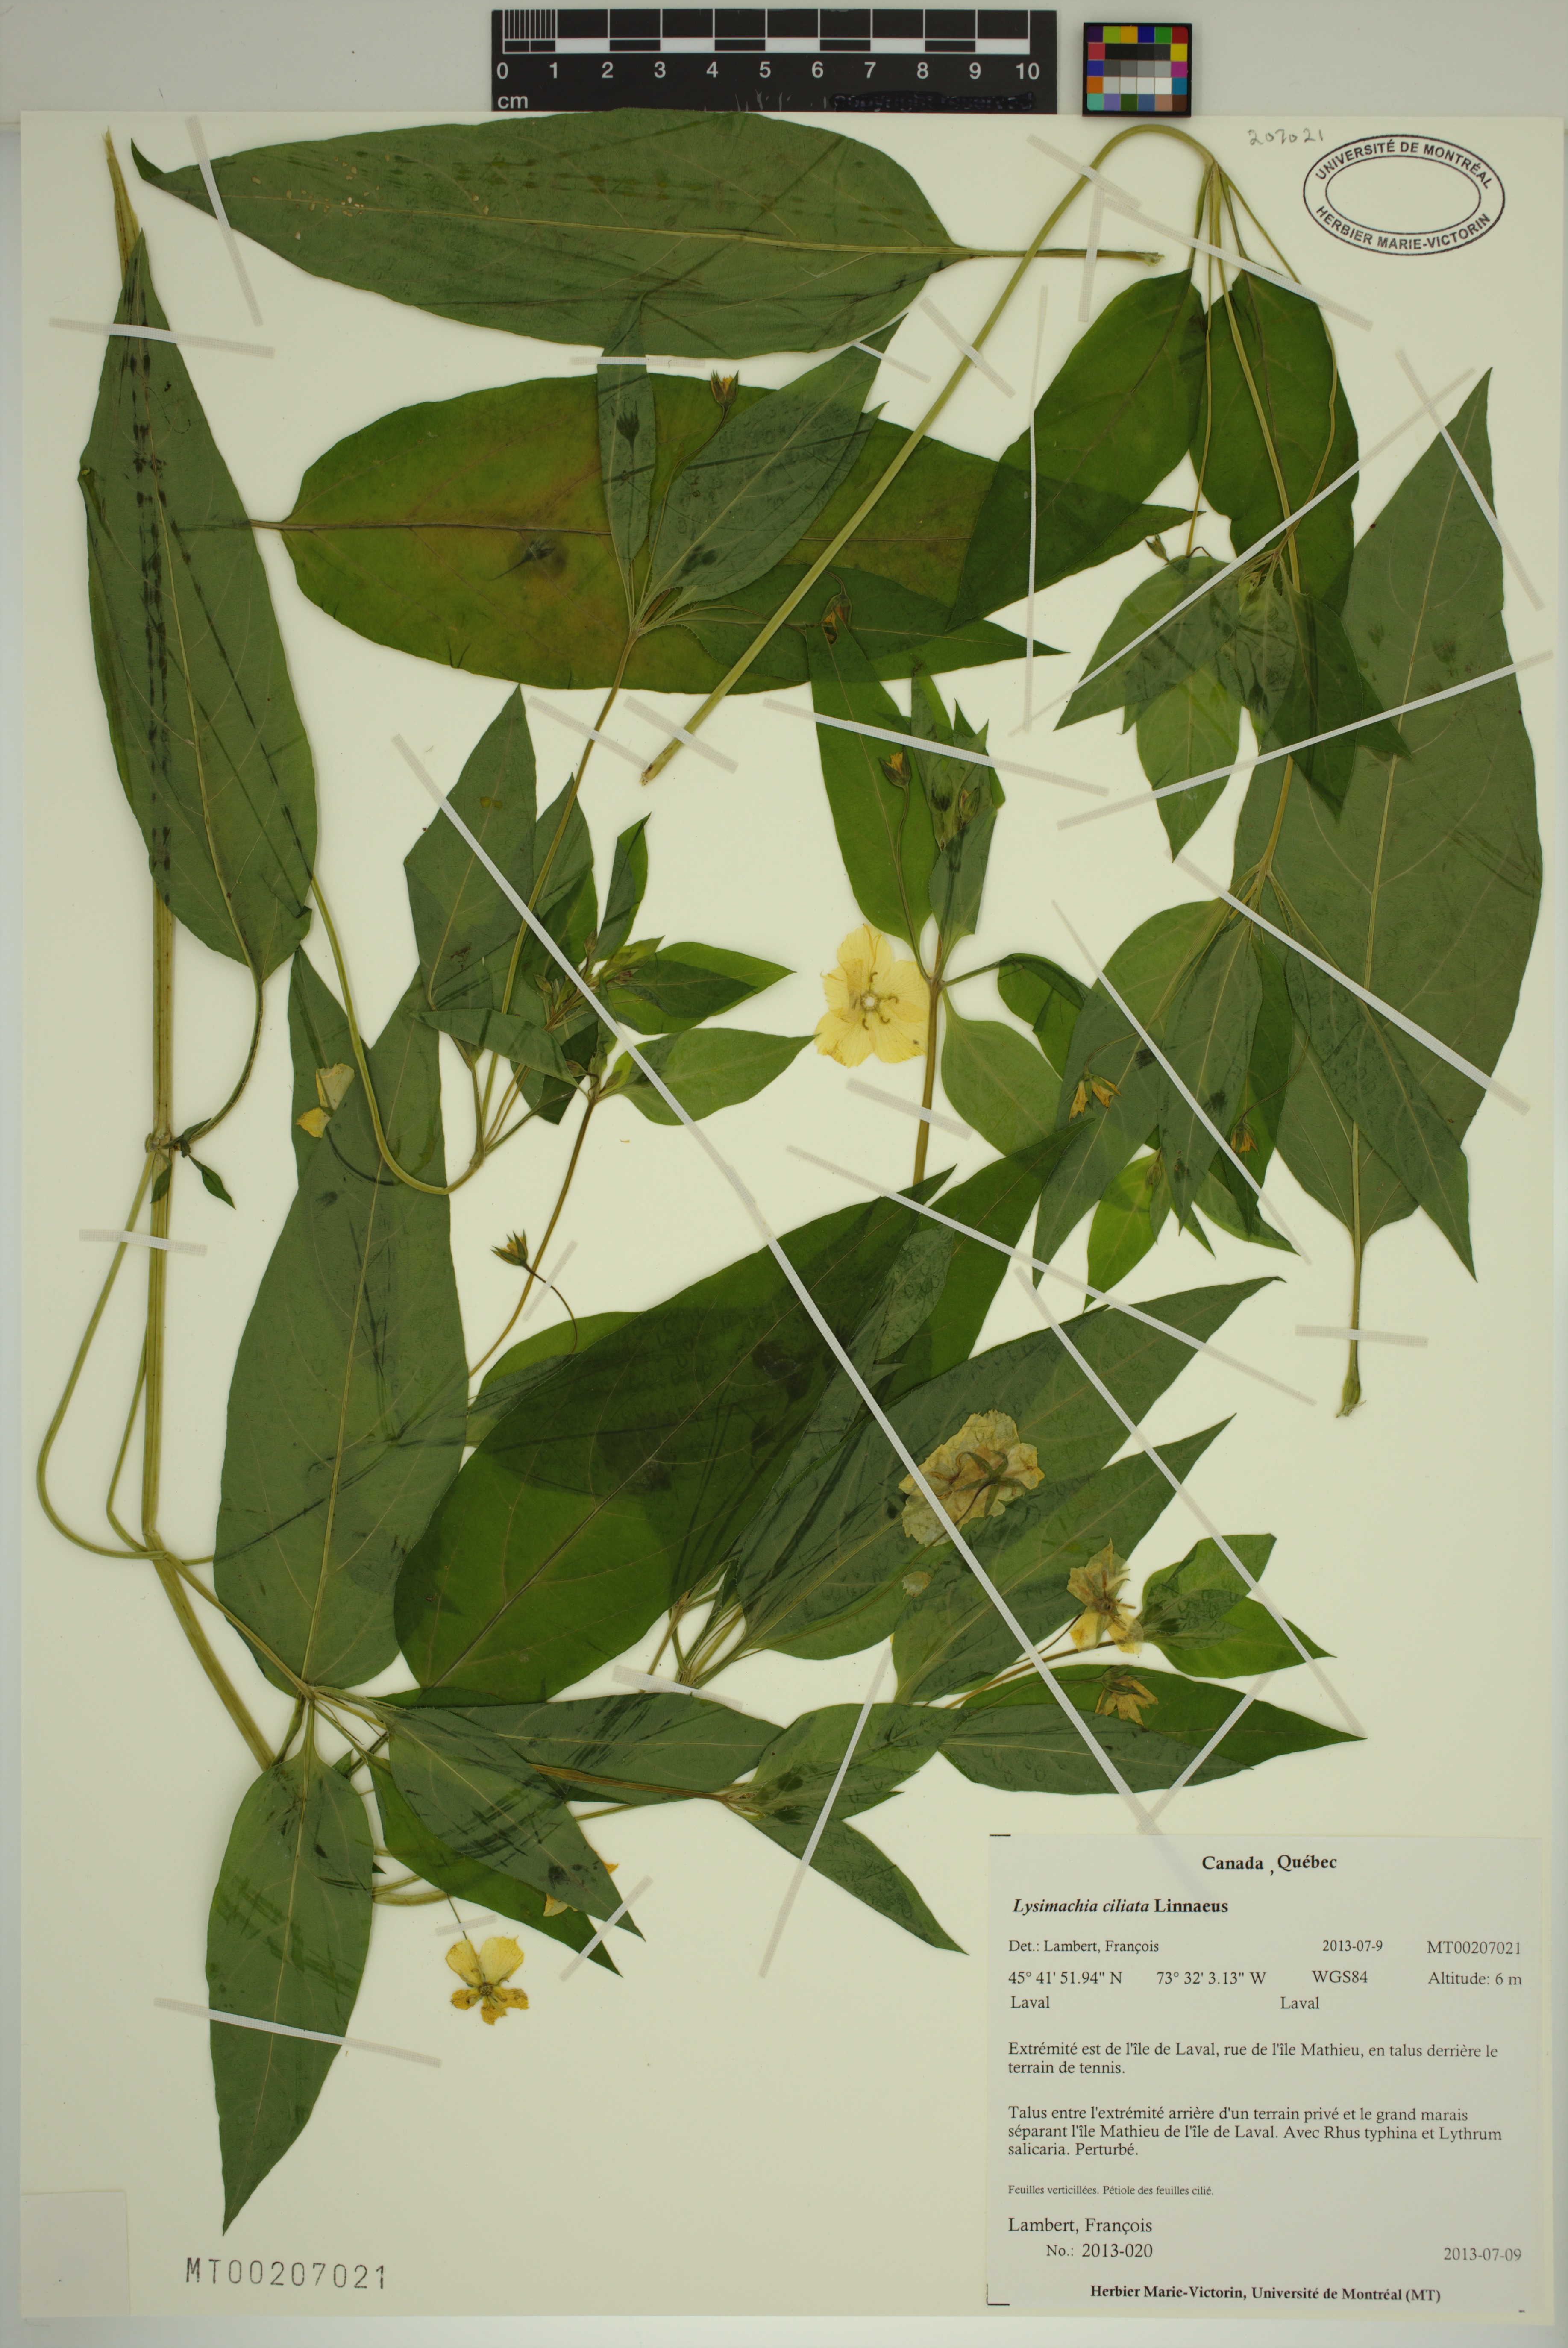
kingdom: Plantae
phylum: Tracheophyta
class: Magnoliopsida
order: Ericales
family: Primulaceae
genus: Lysimachia
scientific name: Lysimachia ciliata
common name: Fringed loosestrife
